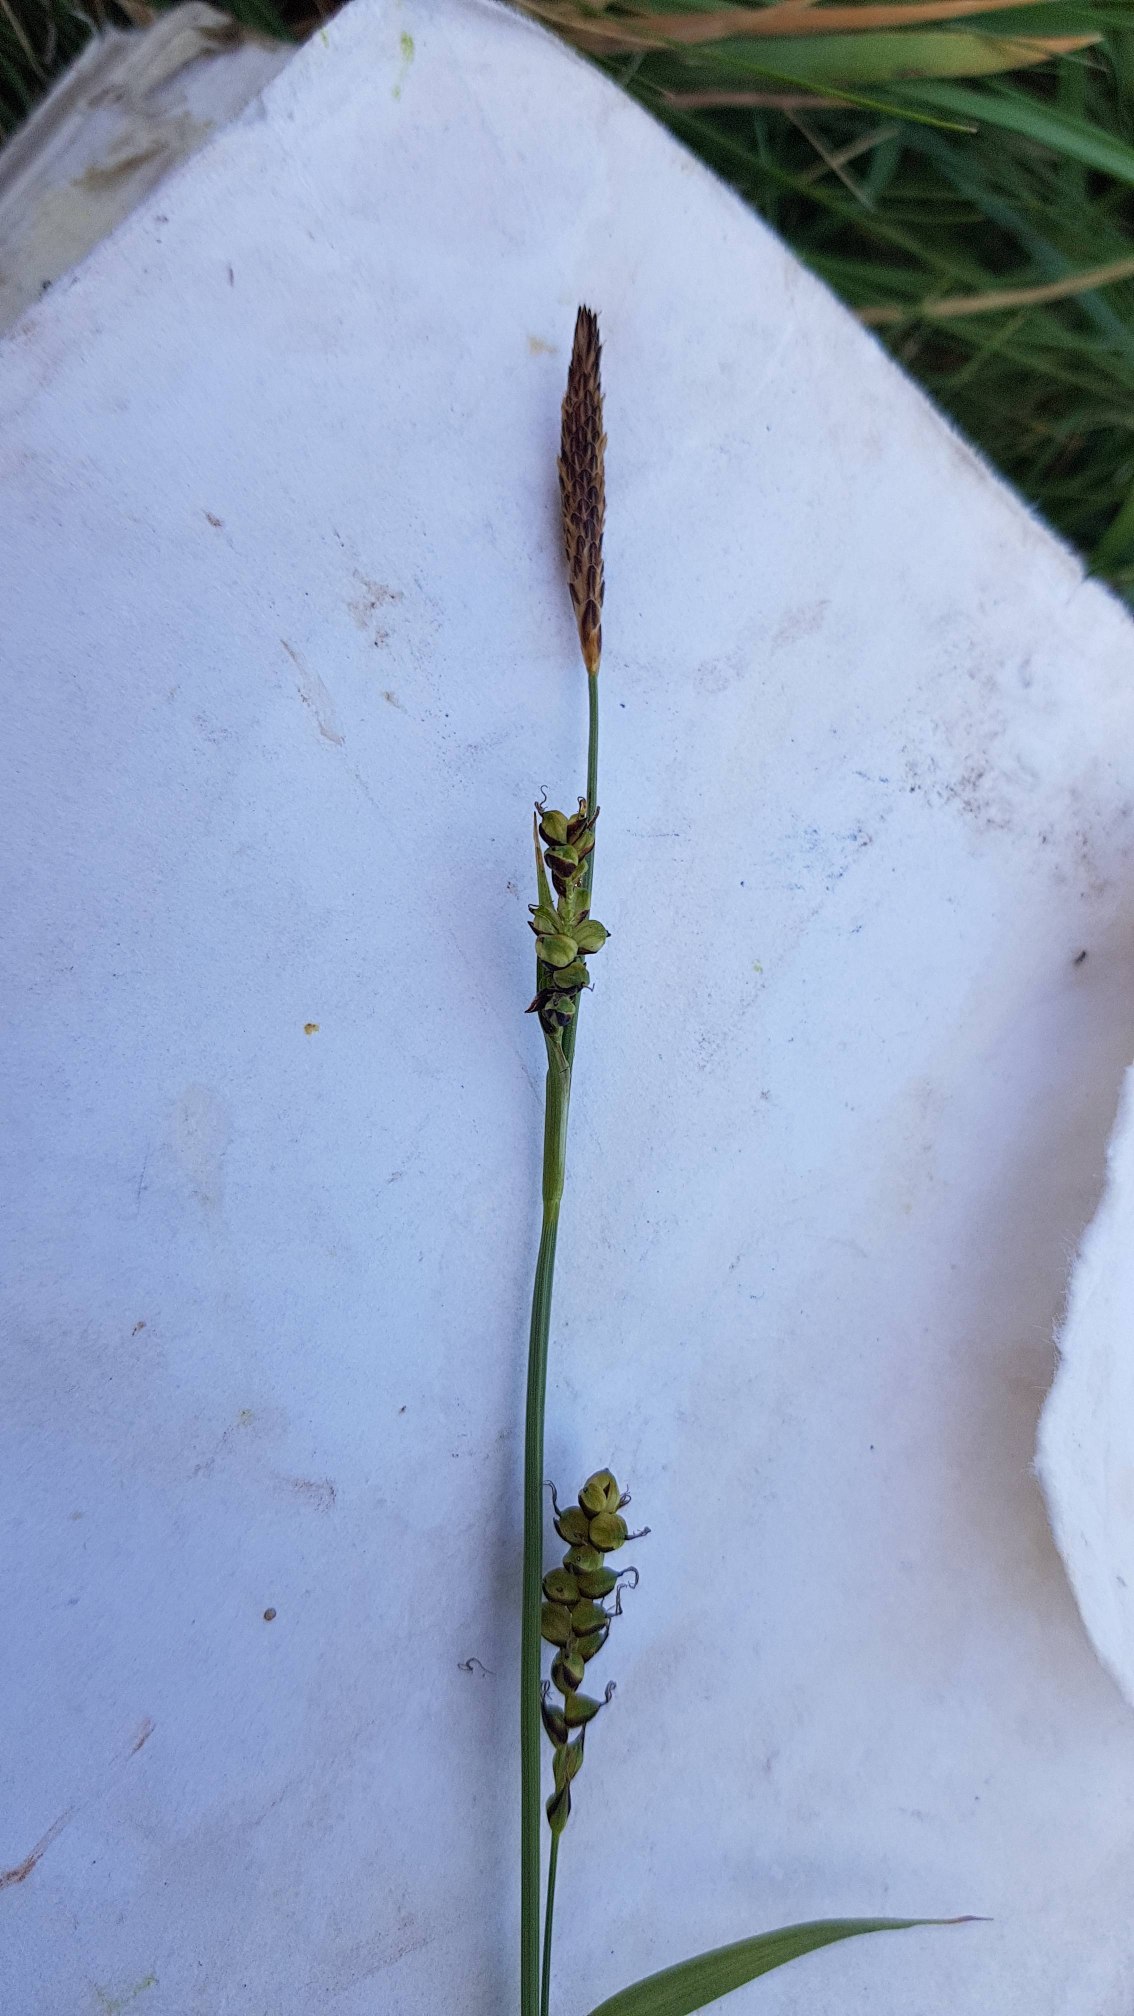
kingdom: Plantae
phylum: Tracheophyta
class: Liliopsida
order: Poales
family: Cyperaceae
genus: Carex
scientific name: Carex panicea
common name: Hirse-star
